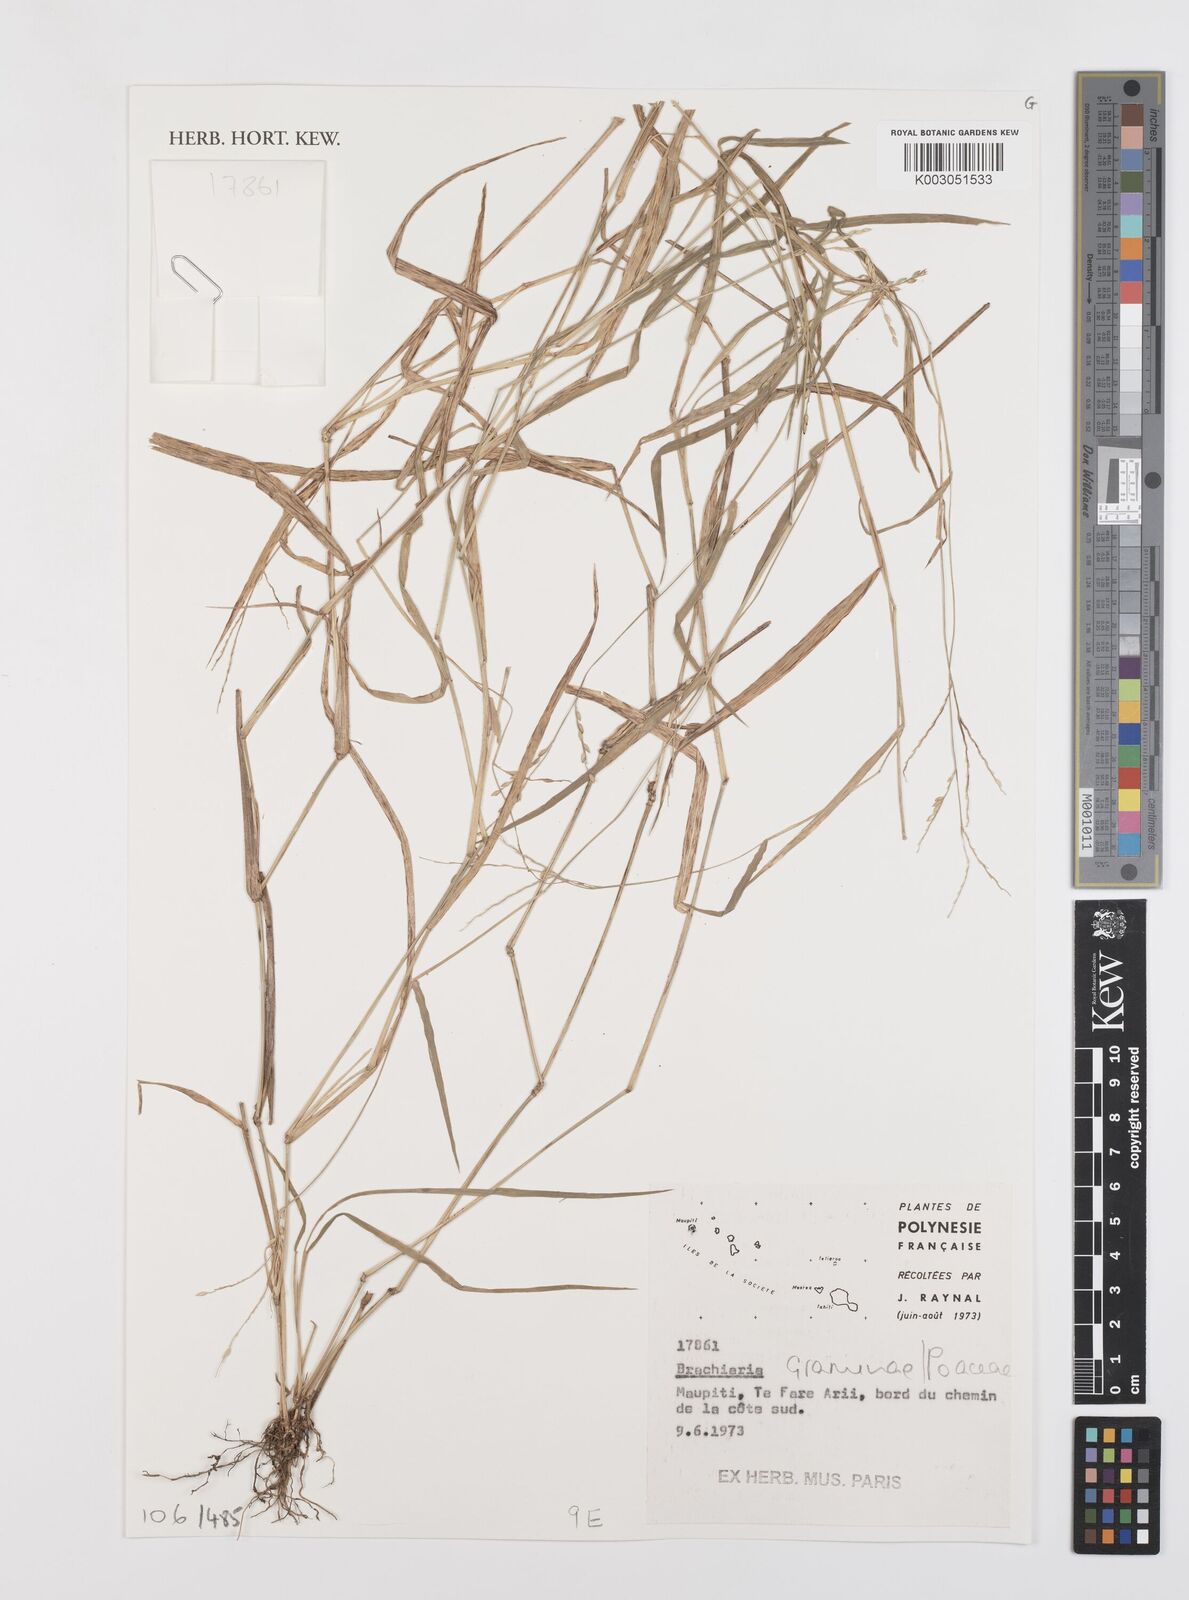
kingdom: Plantae
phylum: Tracheophyta
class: Liliopsida
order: Poales
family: Poaceae
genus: Brachiaria
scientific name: Brachiaria
